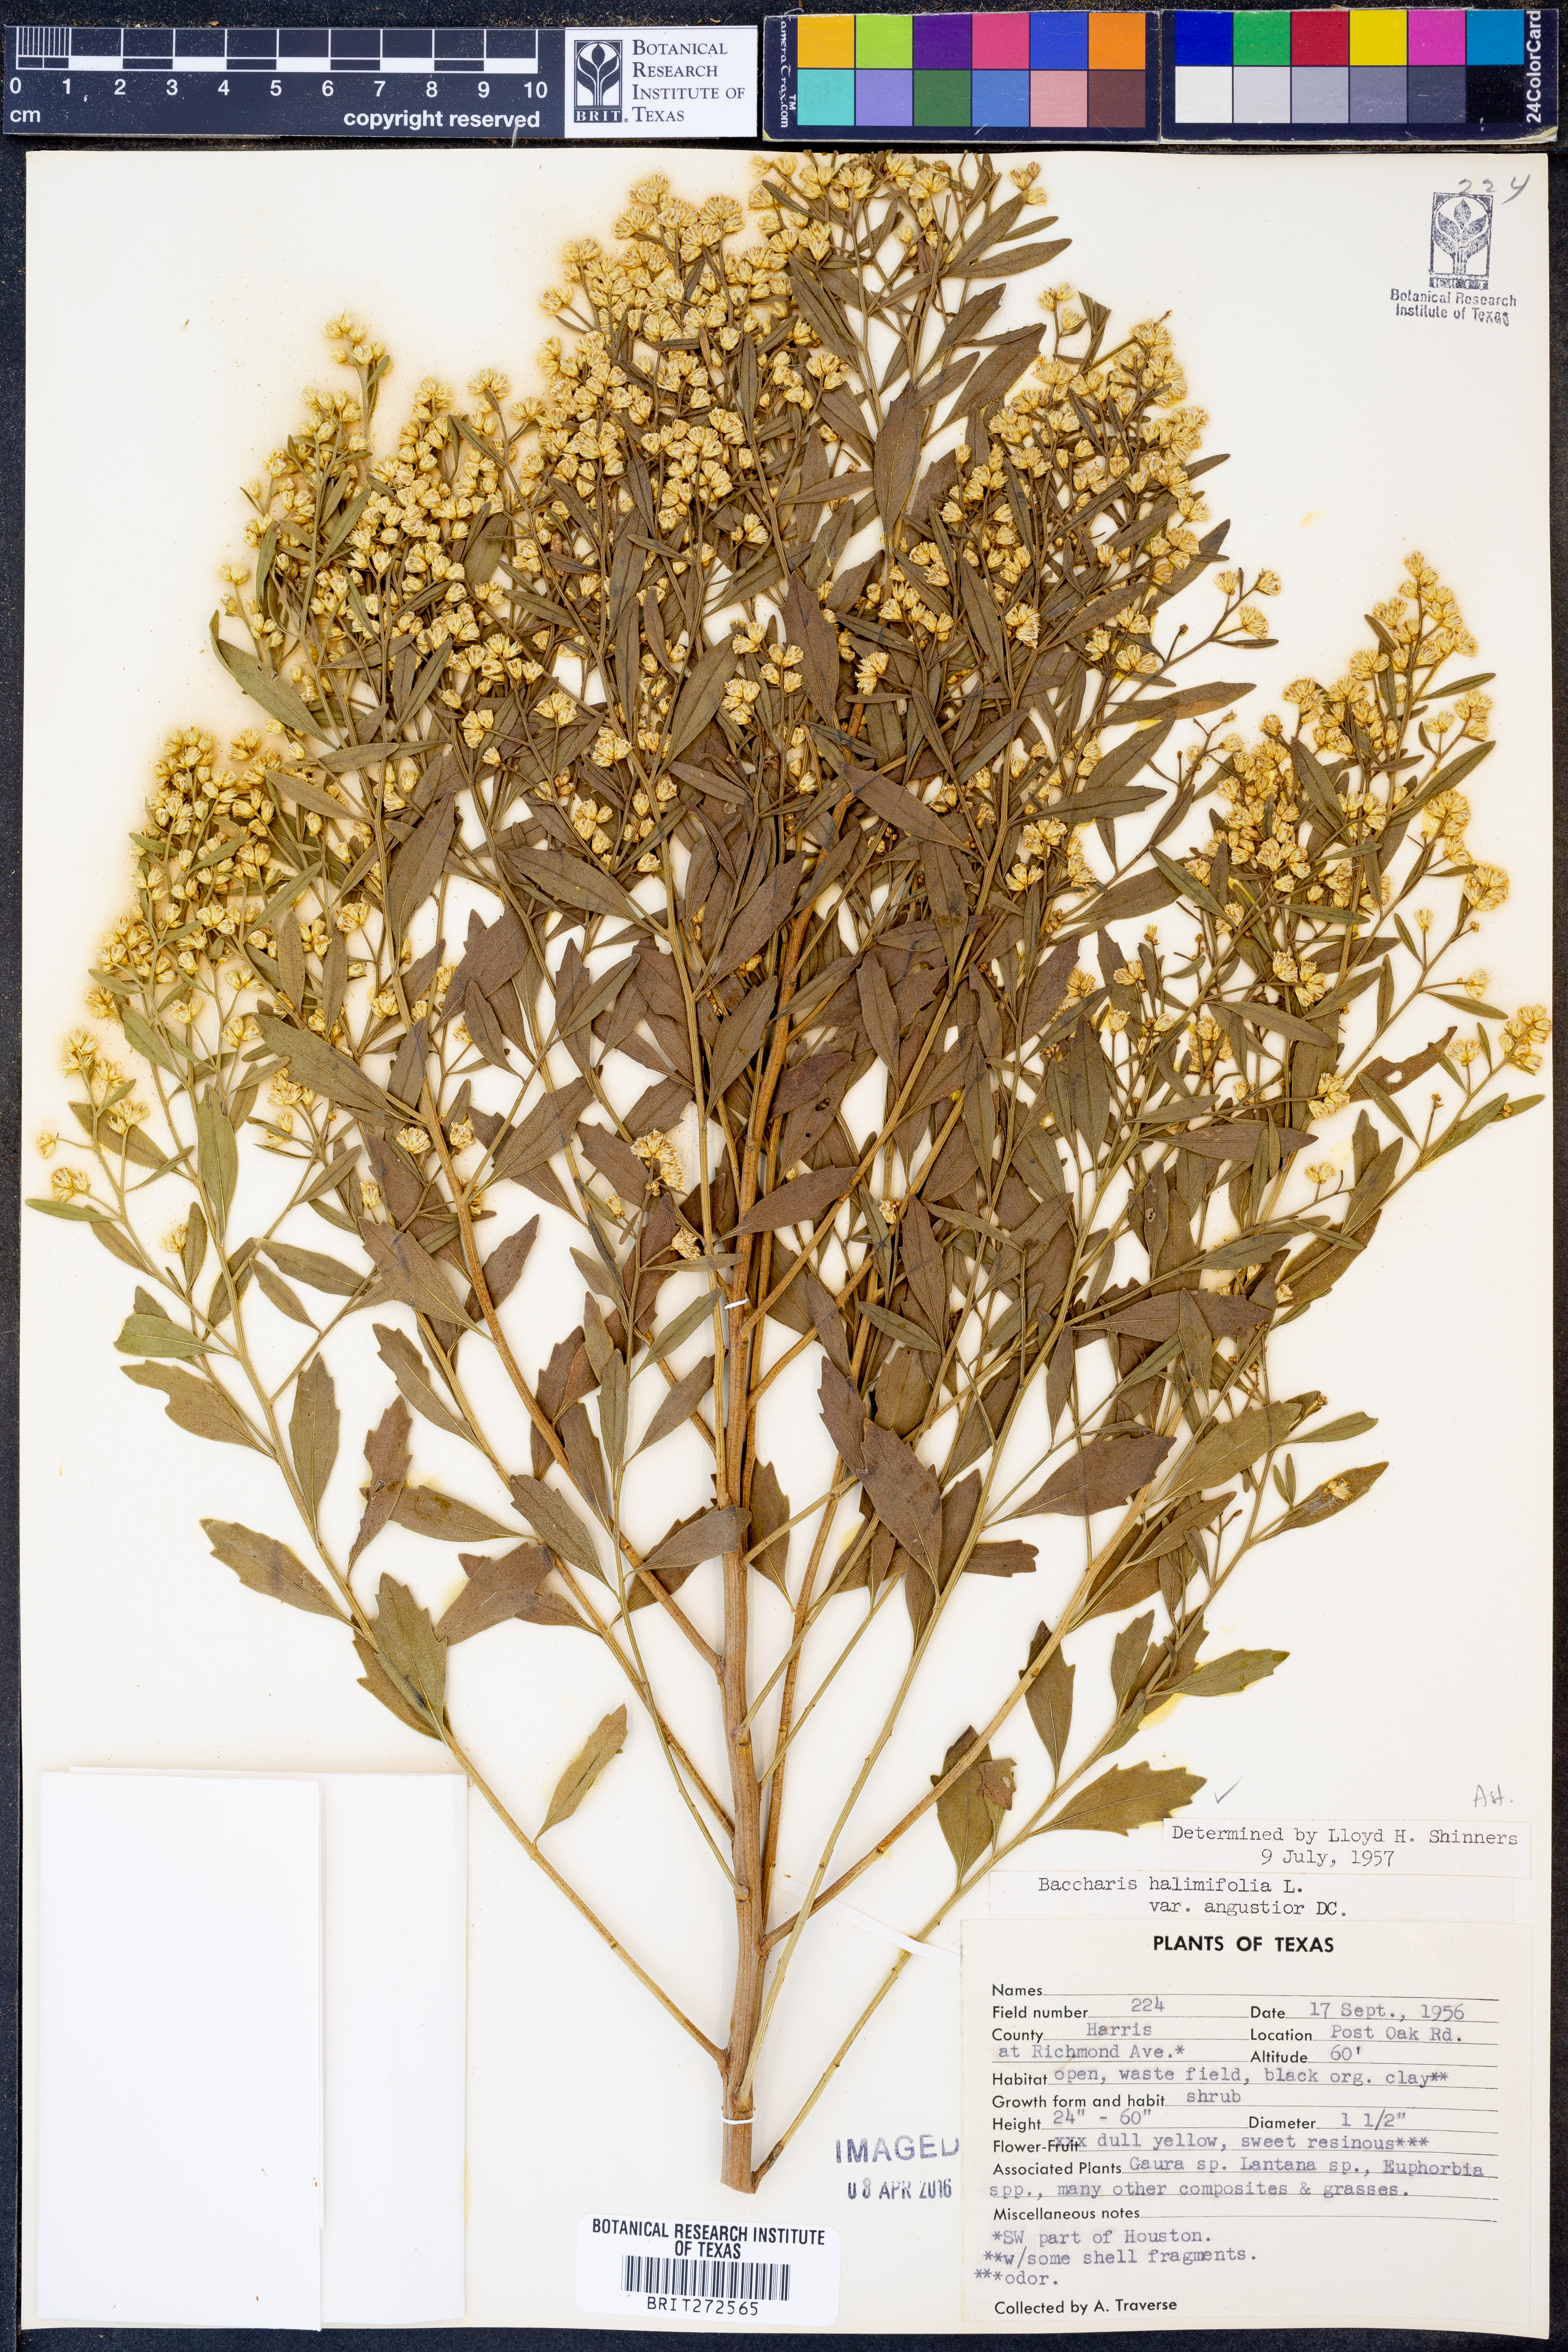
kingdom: Plantae
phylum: Tracheophyta
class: Magnoliopsida
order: Asterales
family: Asteraceae
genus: Baccharis
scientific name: Baccharis halimifolia
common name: Eastern baccharis
